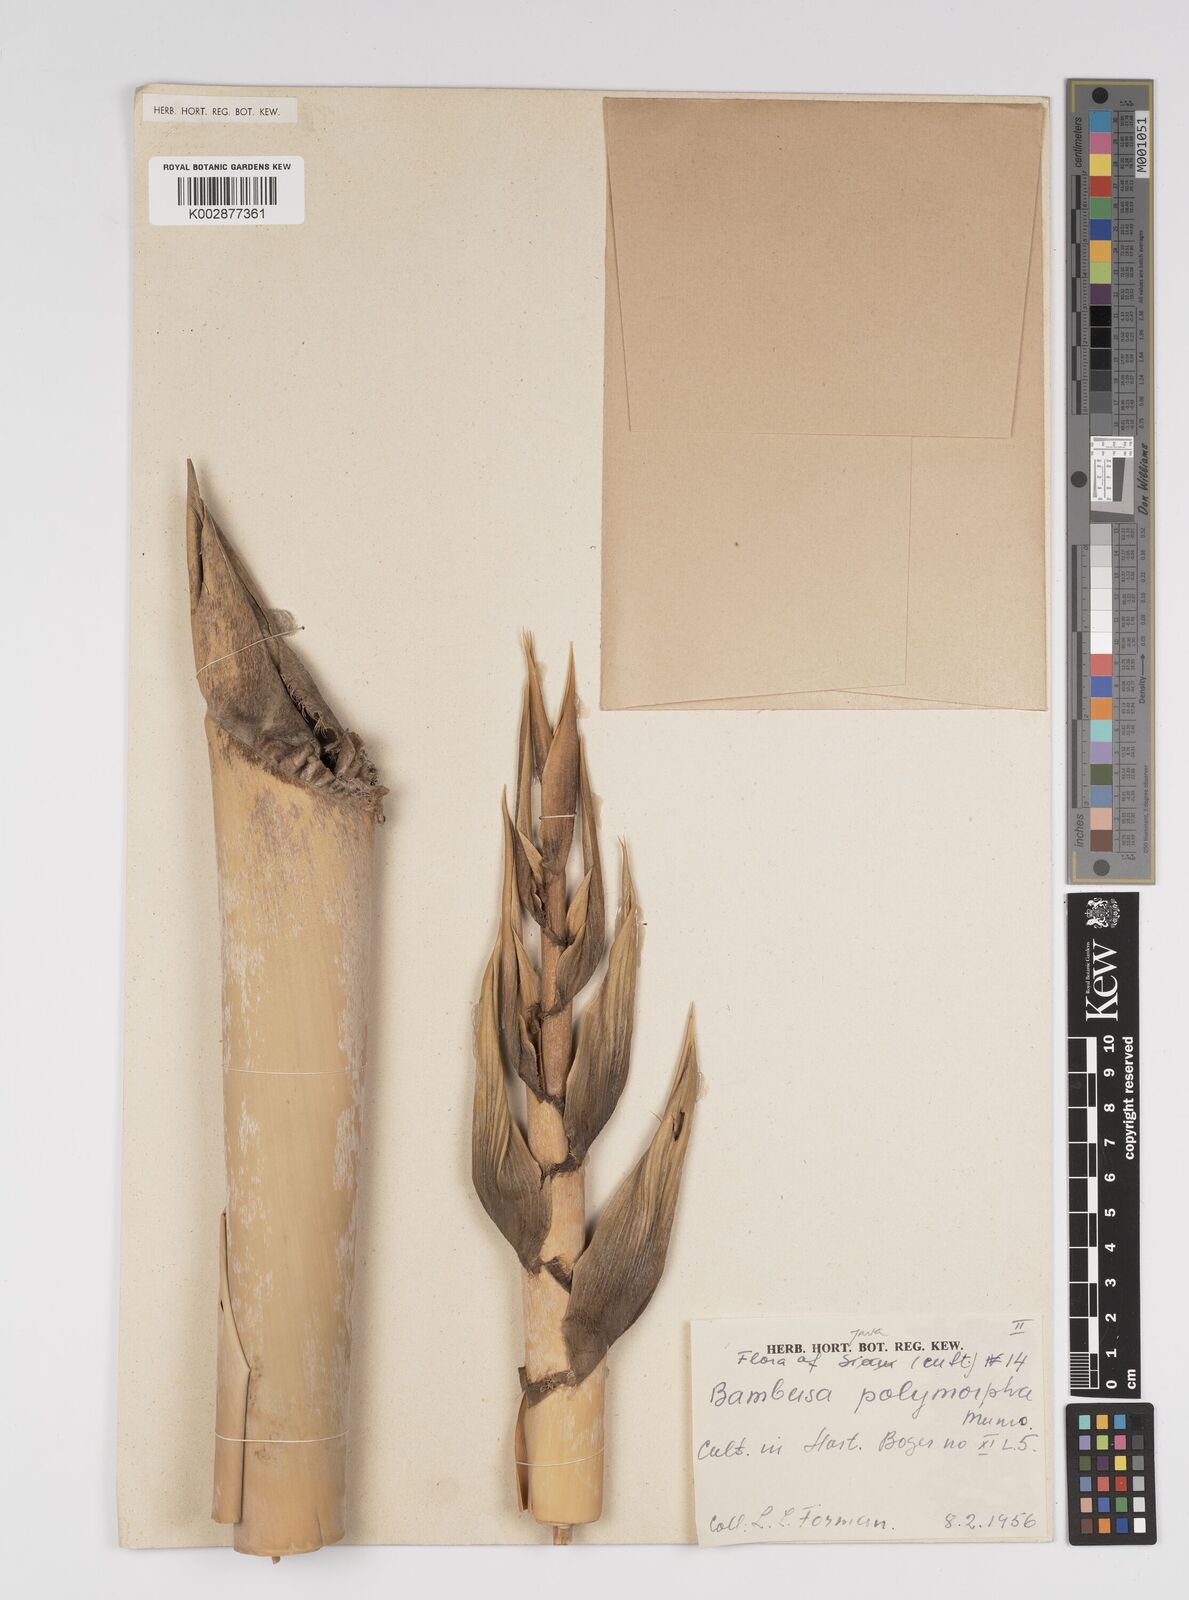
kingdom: Plantae
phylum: Tracheophyta
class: Liliopsida
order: Poales
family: Poaceae
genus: Bambusa
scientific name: Bambusa
